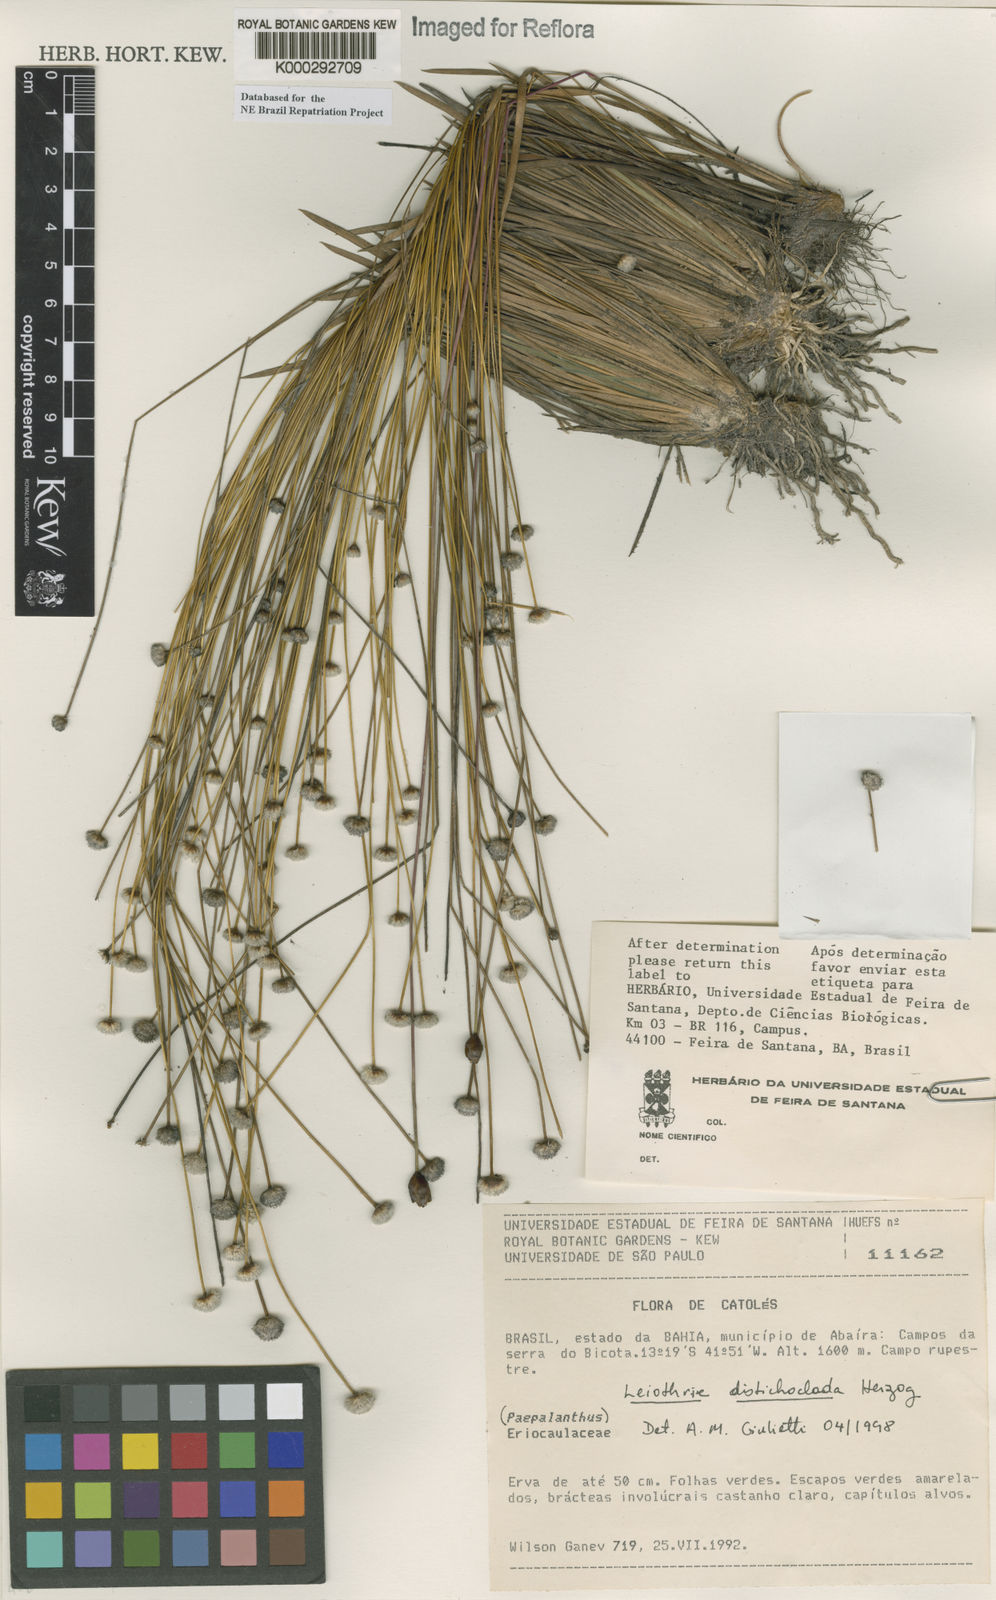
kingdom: Plantae
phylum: Tracheophyta
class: Liliopsida
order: Poales
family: Eriocaulaceae
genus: Leiothrix
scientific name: Leiothrix distichoclada
